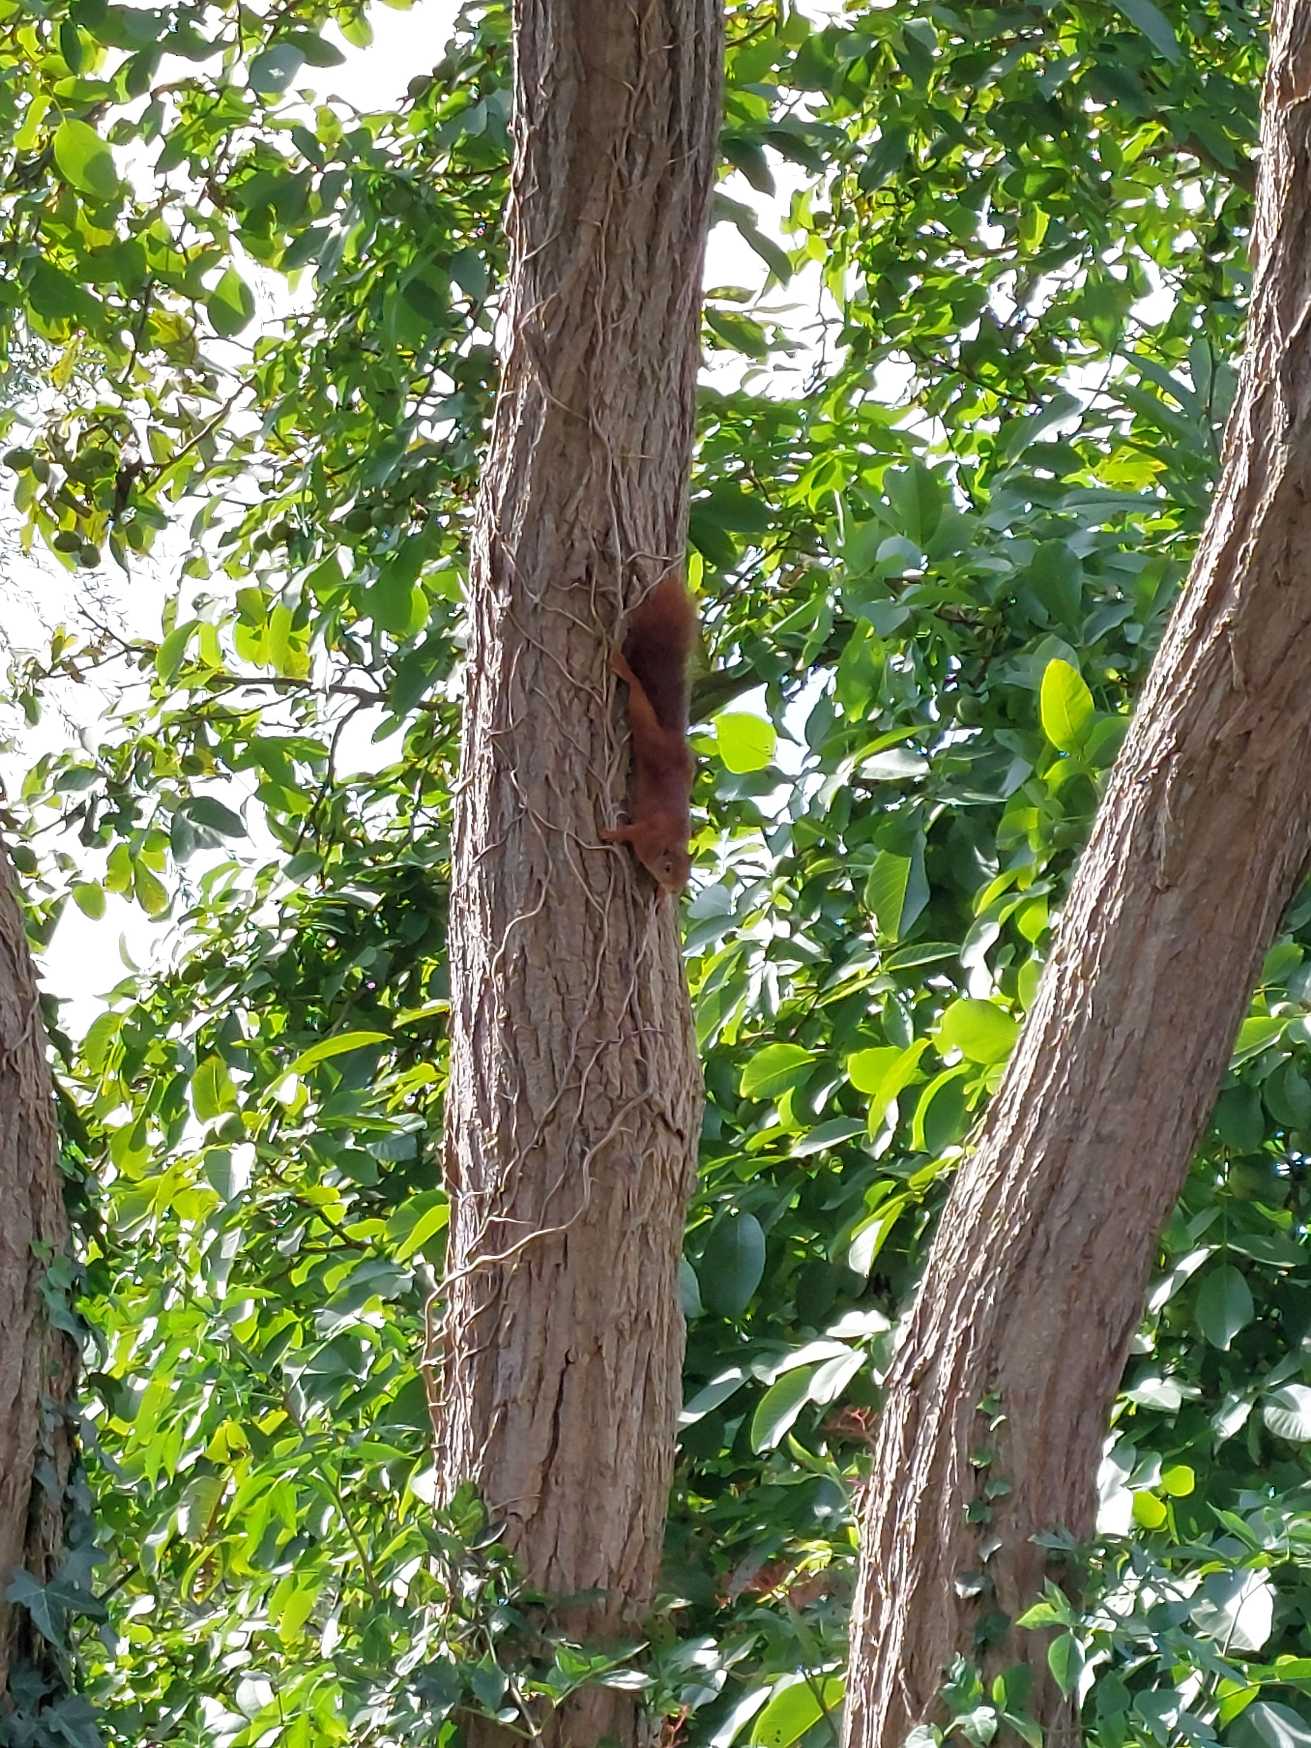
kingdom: Animalia
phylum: Chordata
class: Mammalia
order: Rodentia
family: Sciuridae
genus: Sciurus
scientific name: Sciurus vulgaris
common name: Egern
